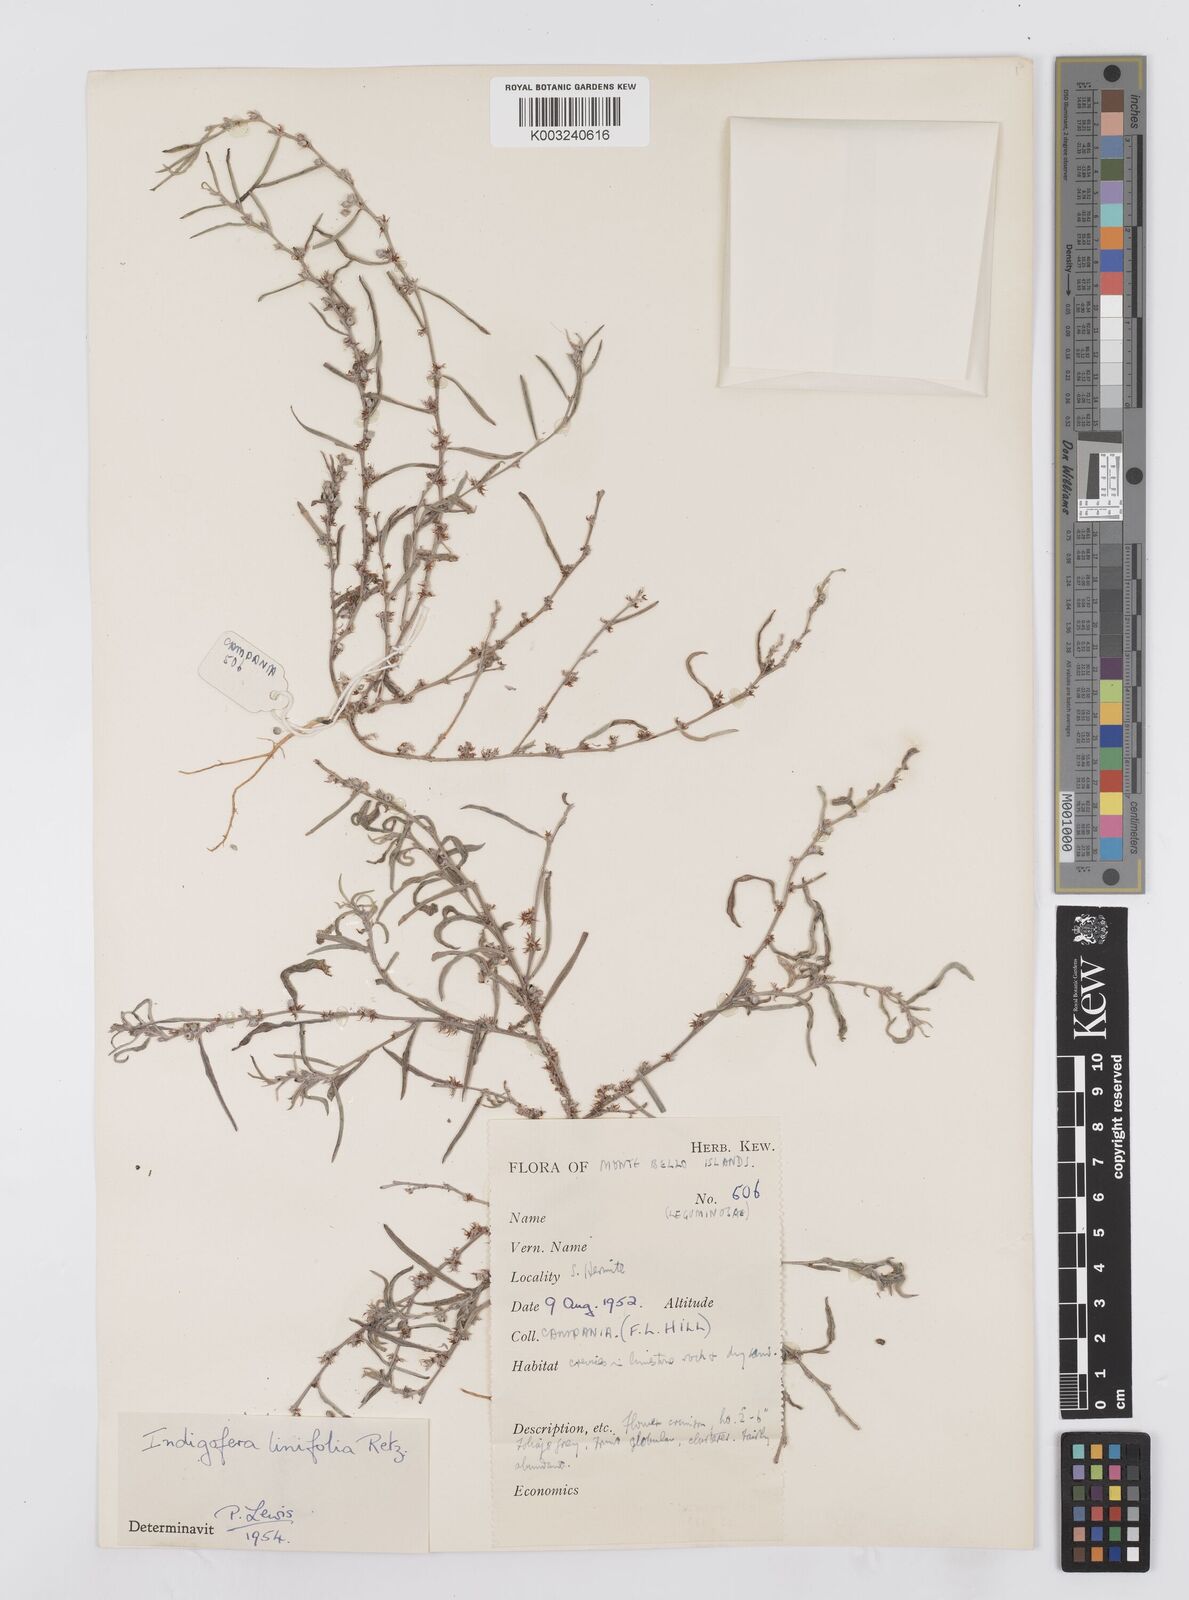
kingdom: Plantae
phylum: Tracheophyta
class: Magnoliopsida
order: Fabales
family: Fabaceae
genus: Indigofera
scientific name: Indigofera linifolia
